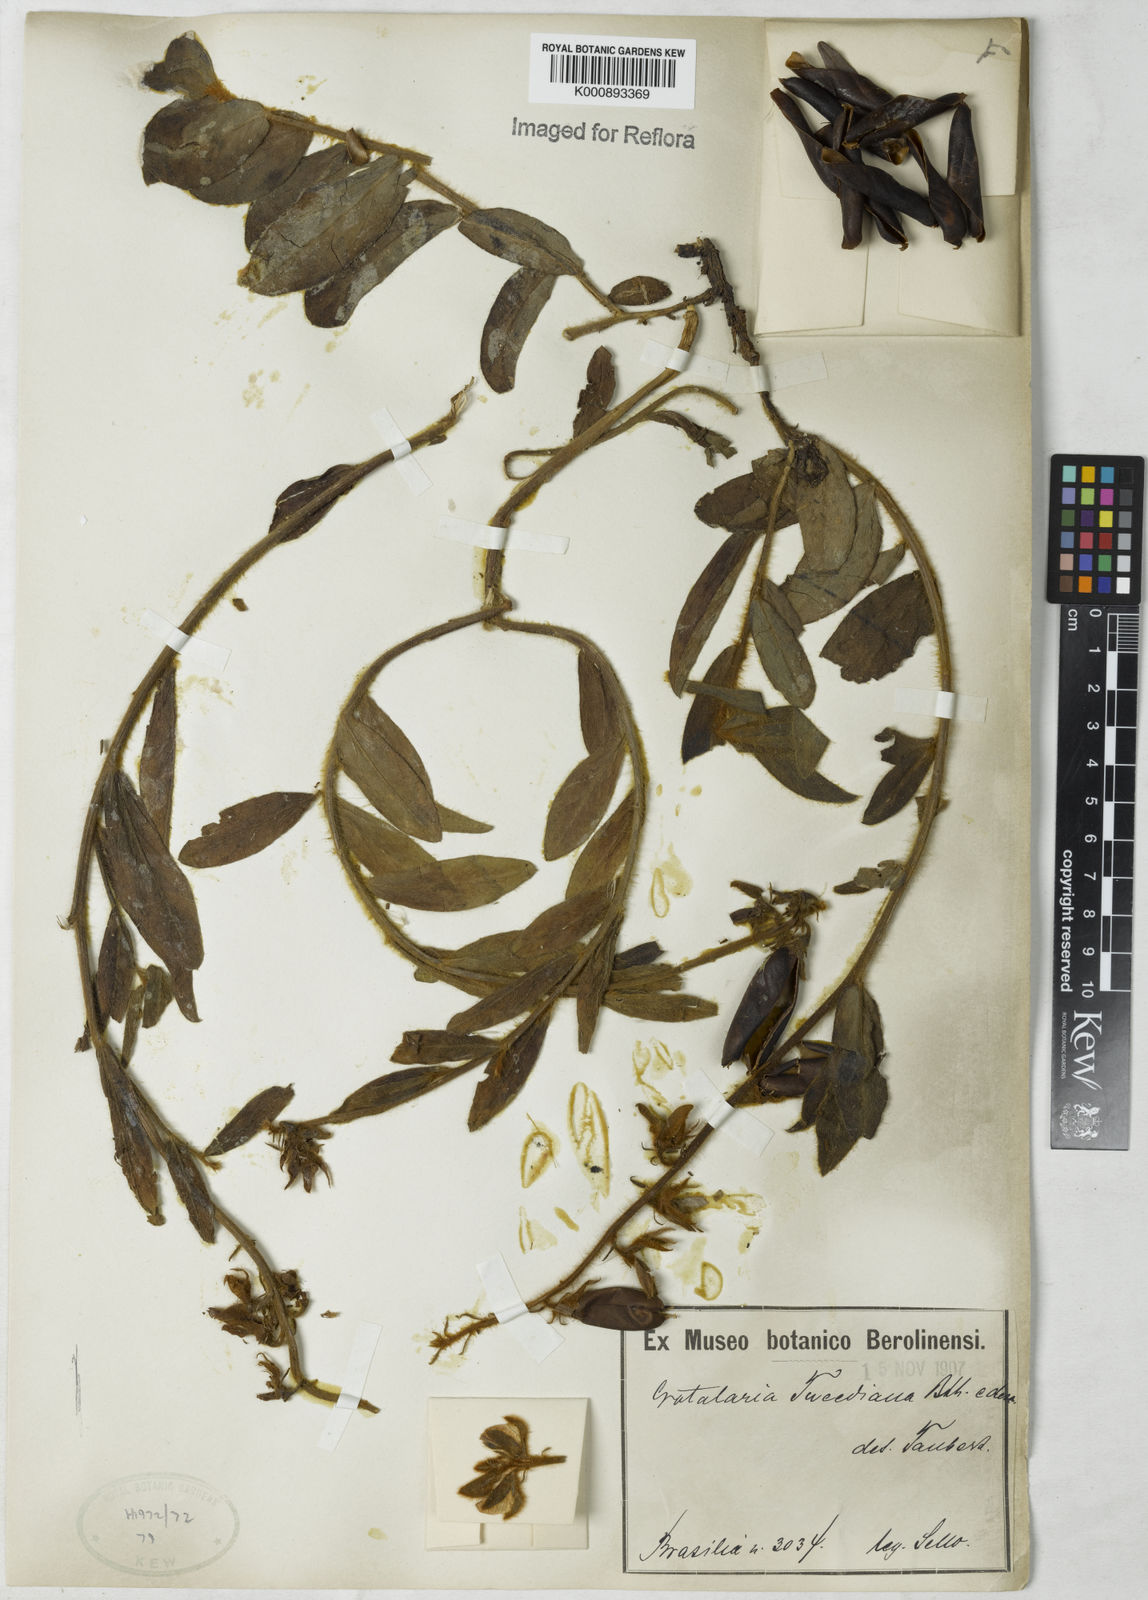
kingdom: Plantae
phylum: Tracheophyta
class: Magnoliopsida
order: Fabales
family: Fabaceae
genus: Crotalaria
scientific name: Crotalaria
